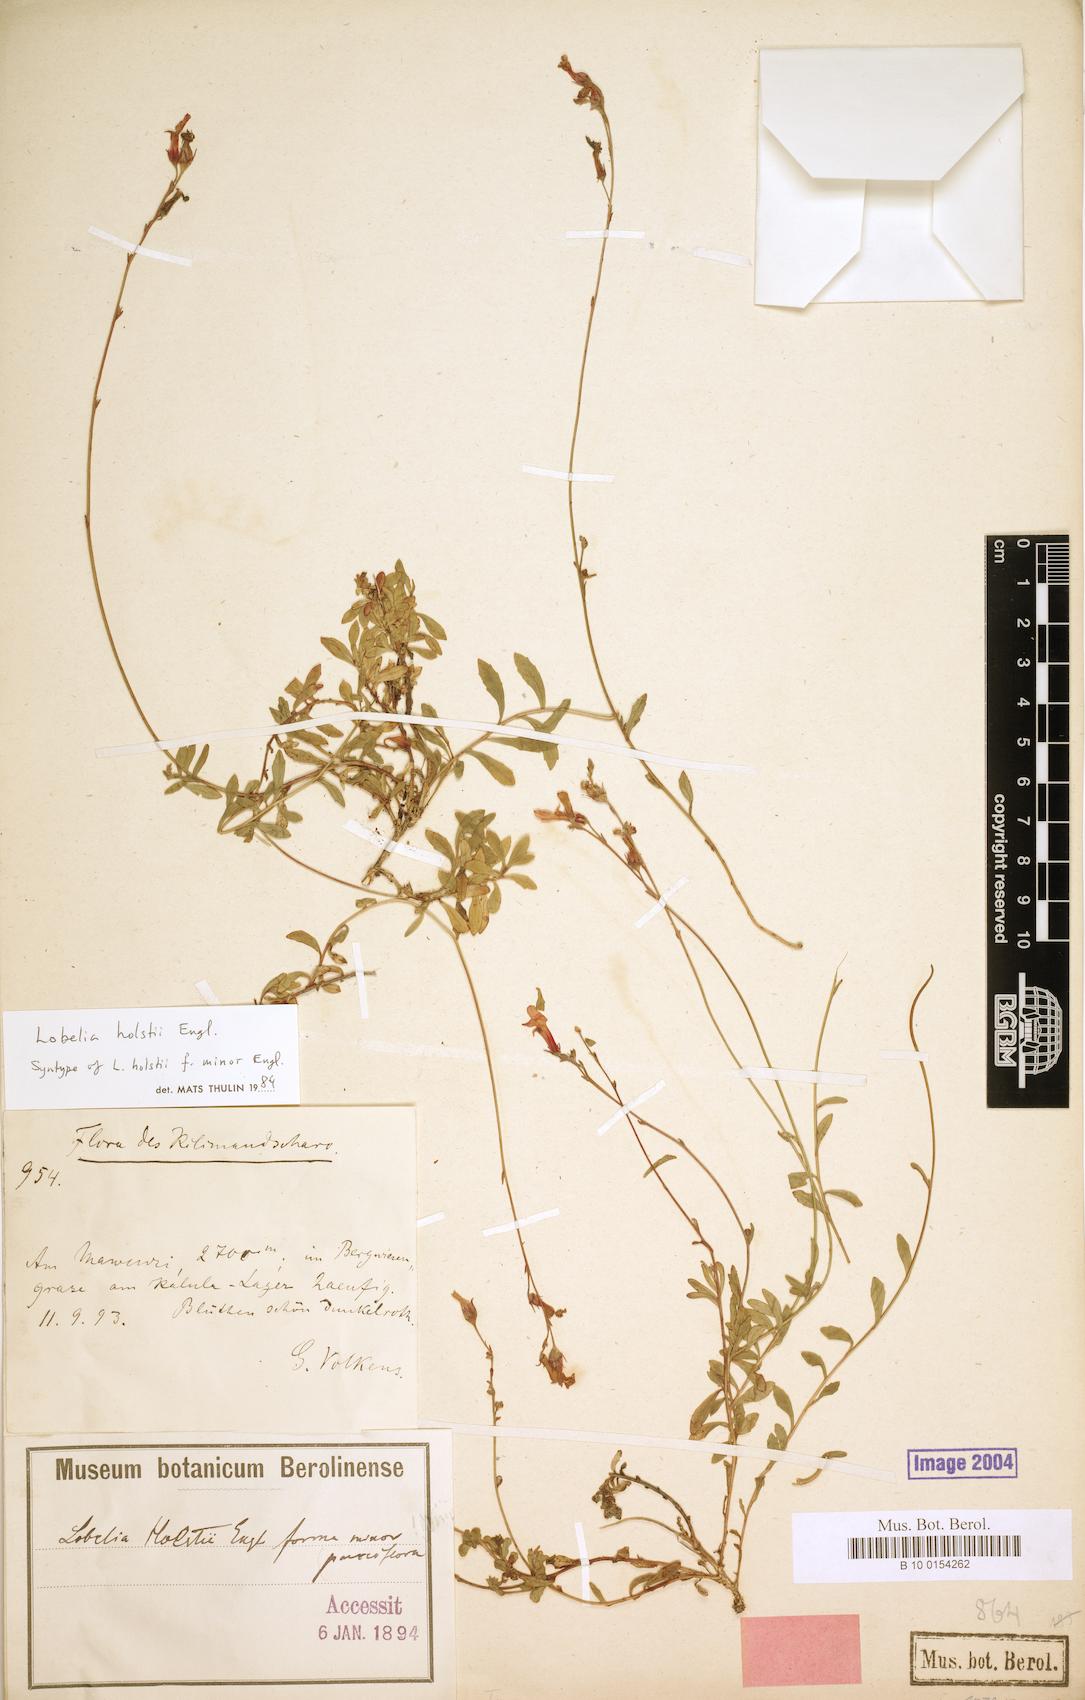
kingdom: Plantae
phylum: Tracheophyta
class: Magnoliopsida
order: Asterales
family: Campanulaceae
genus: Lobelia
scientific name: Lobelia holstii
